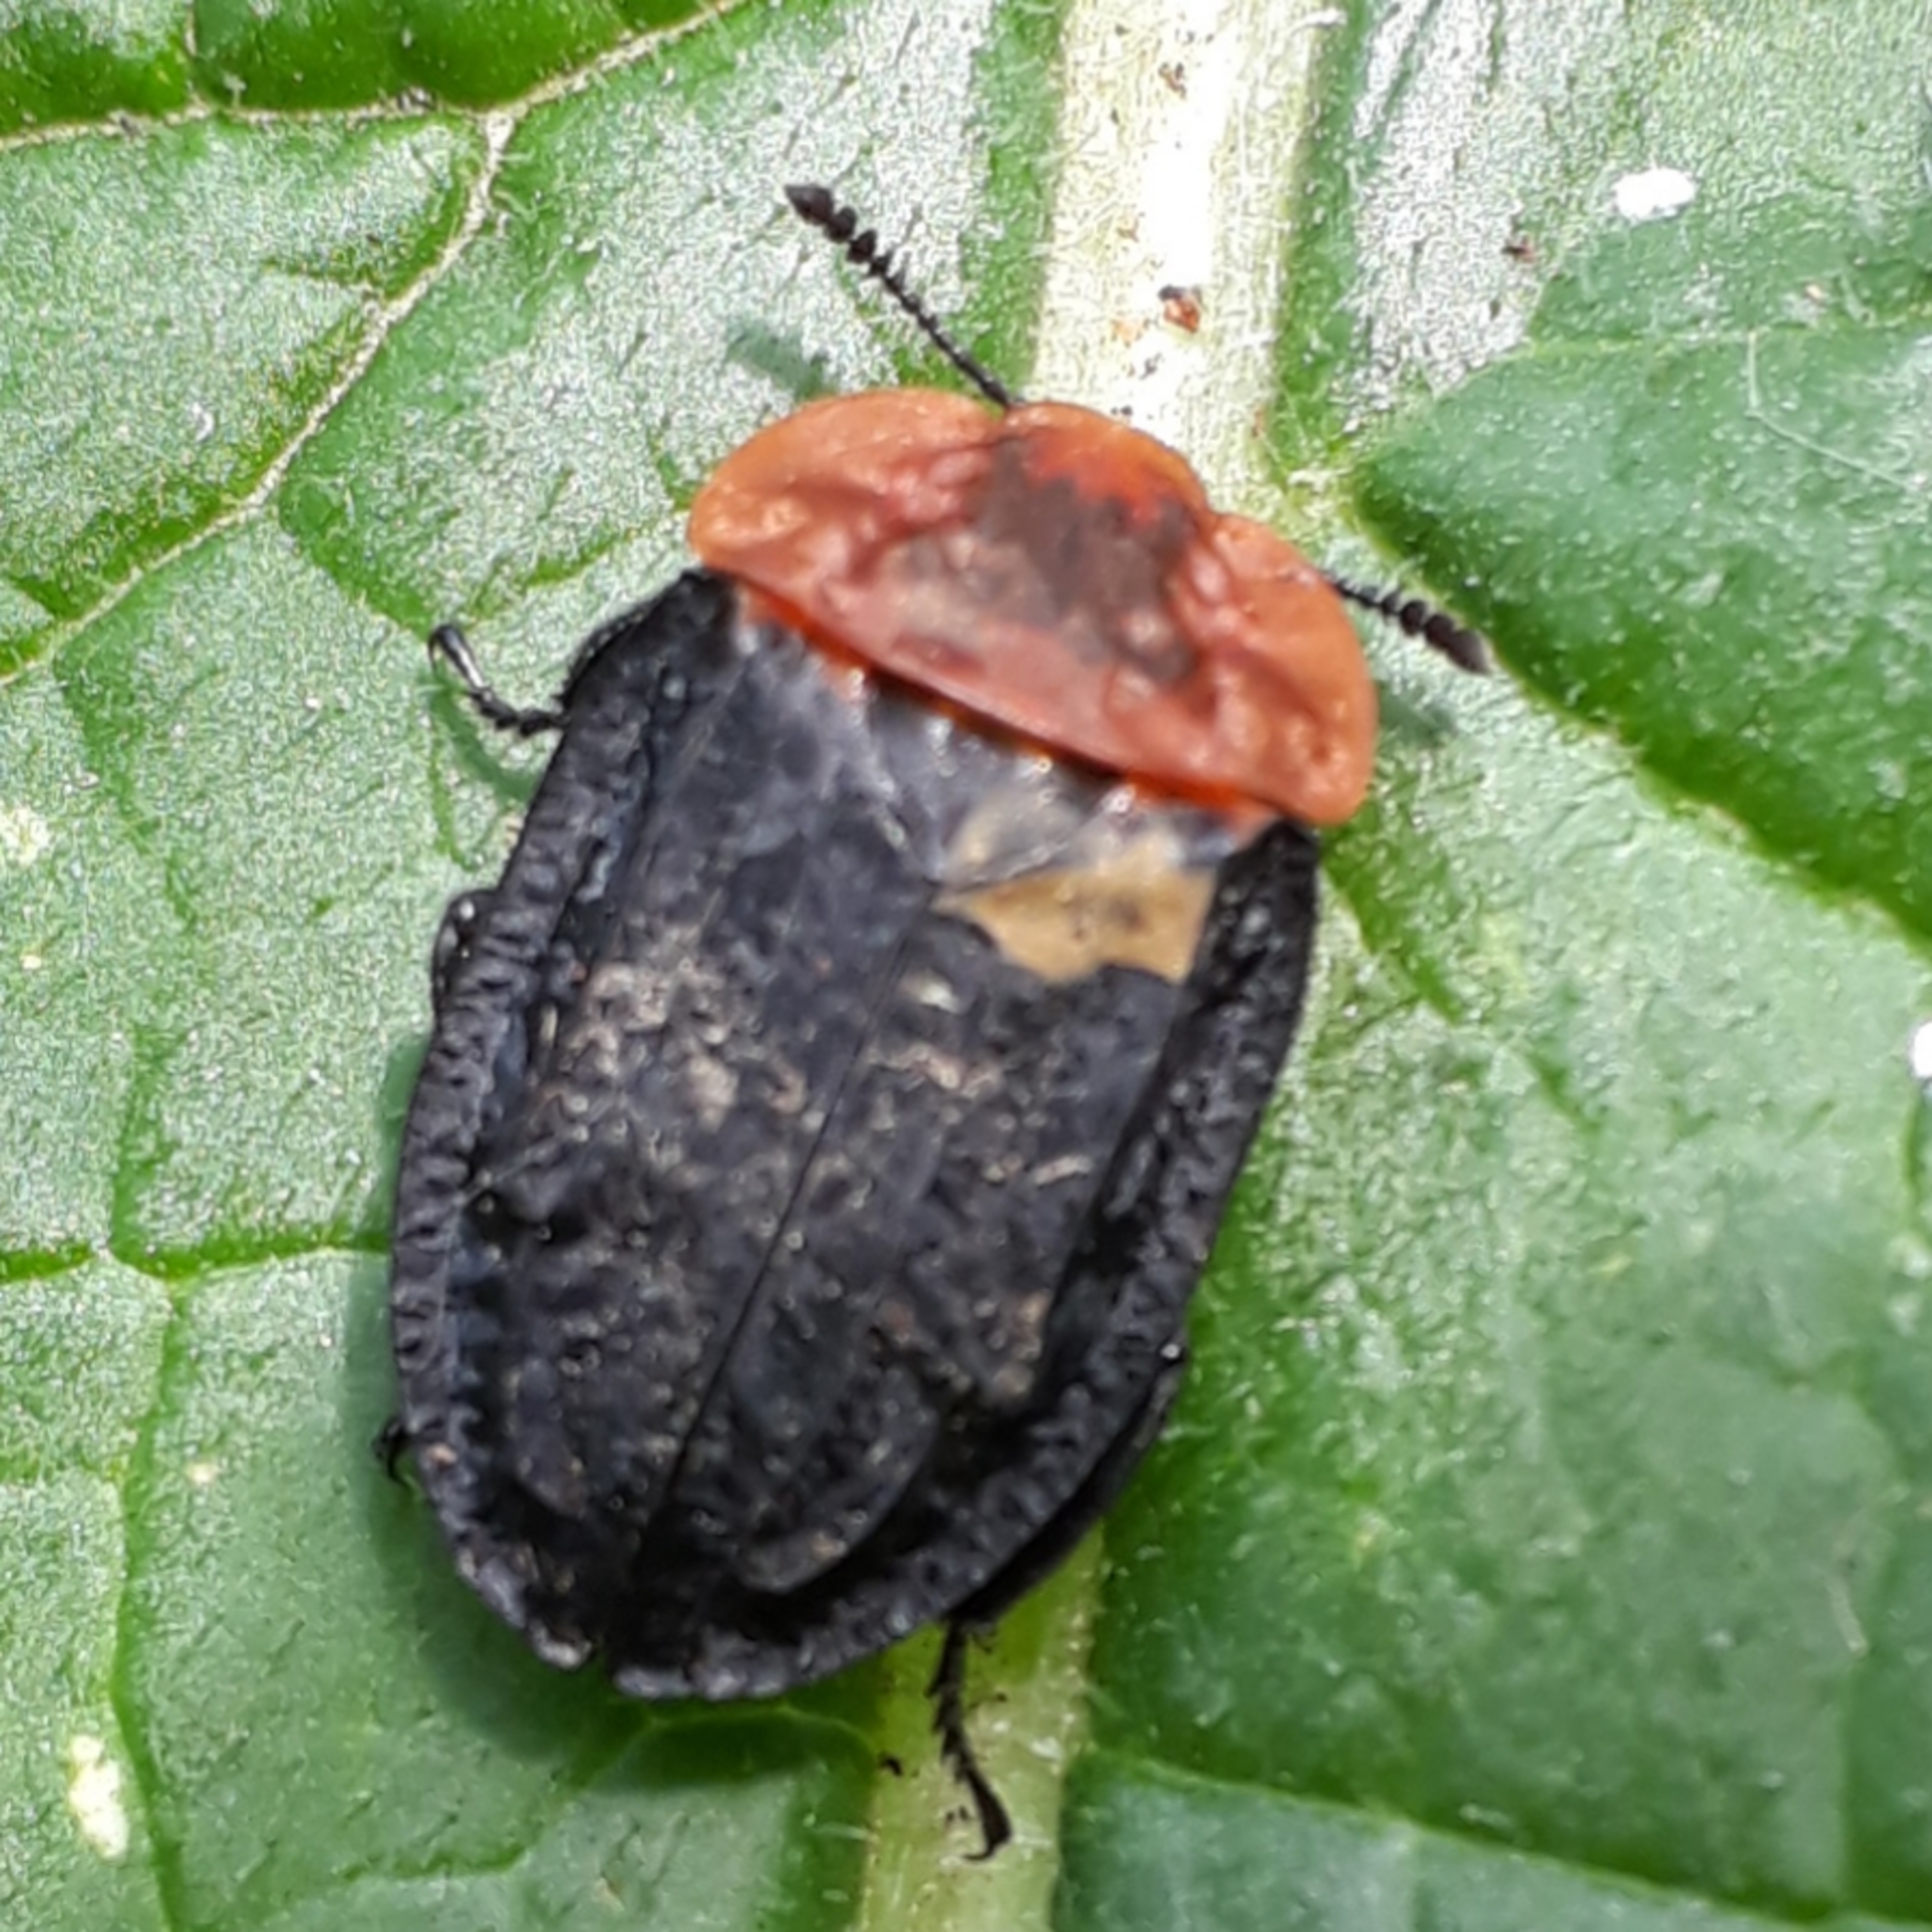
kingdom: Animalia
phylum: Arthropoda
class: Insecta
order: Coleoptera
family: Staphylinidae
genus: Oiceoptoma
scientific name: Oiceoptoma thoracicum
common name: Rødbrystet ådselbille
